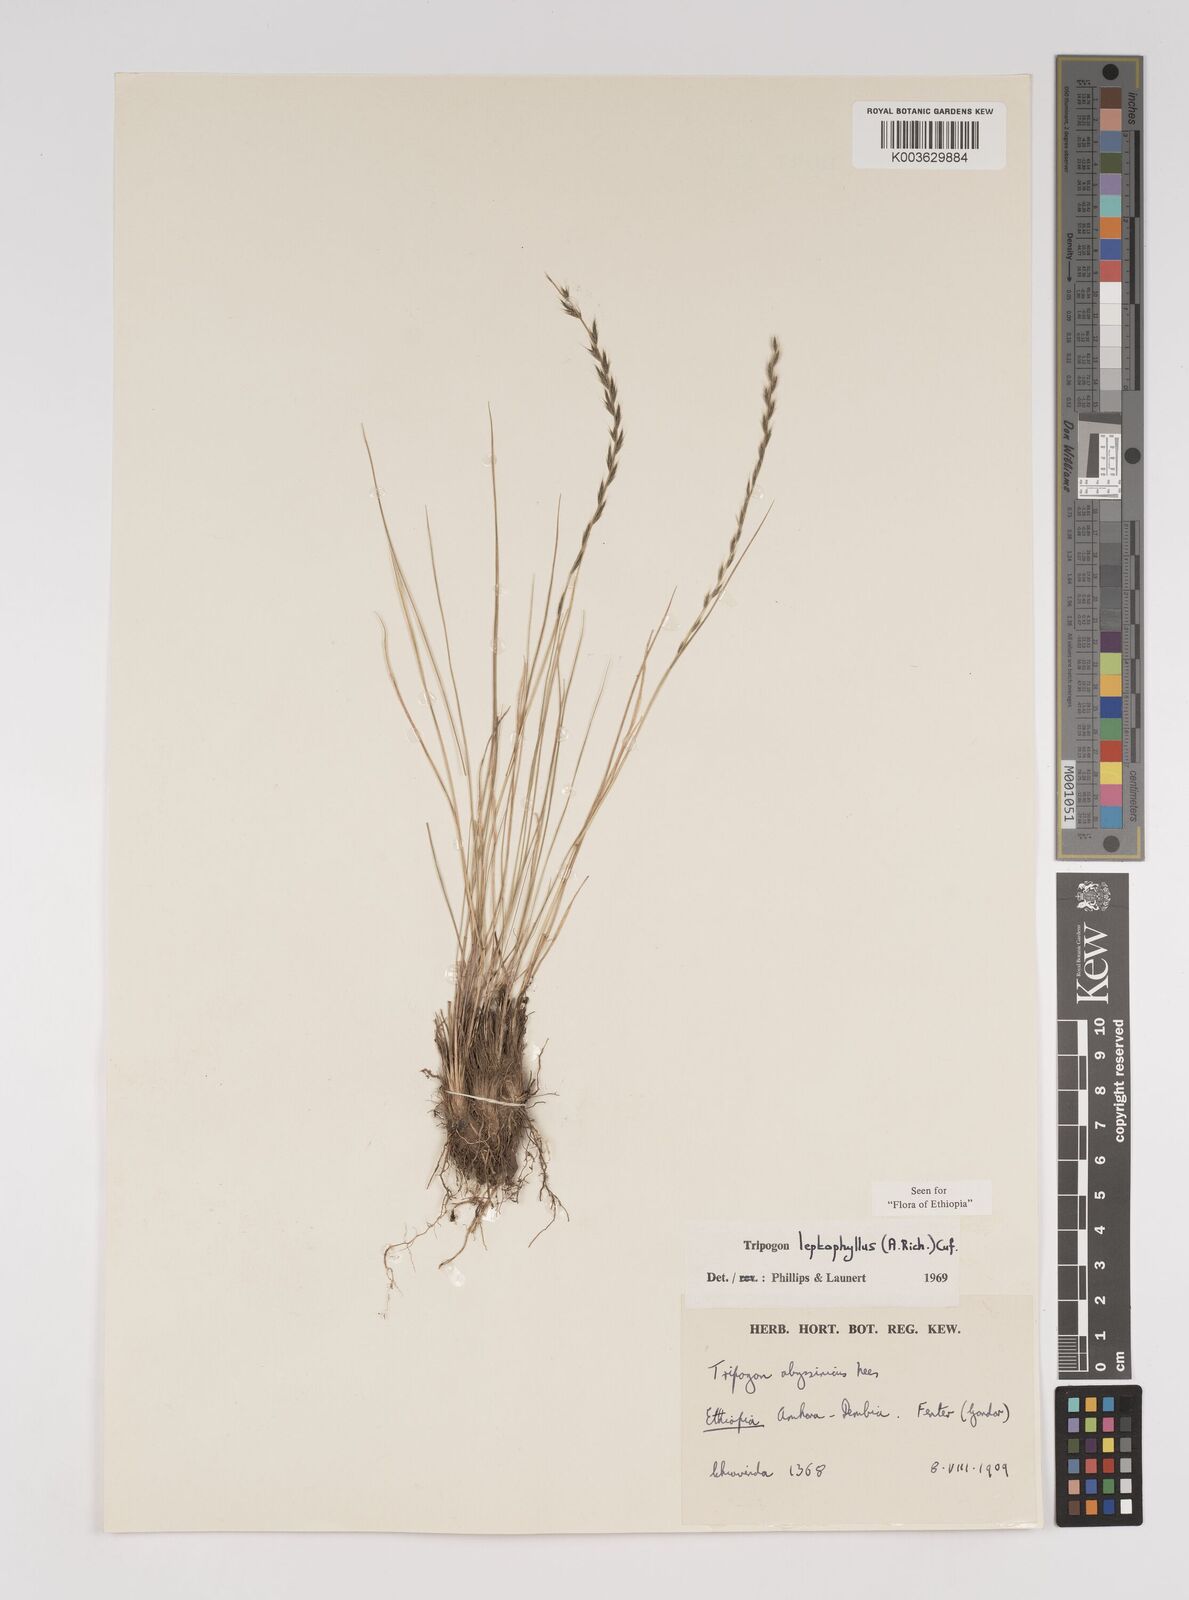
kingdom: Plantae
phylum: Tracheophyta
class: Liliopsida
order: Poales
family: Poaceae
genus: Tripogon
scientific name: Tripogon leptophyllus
